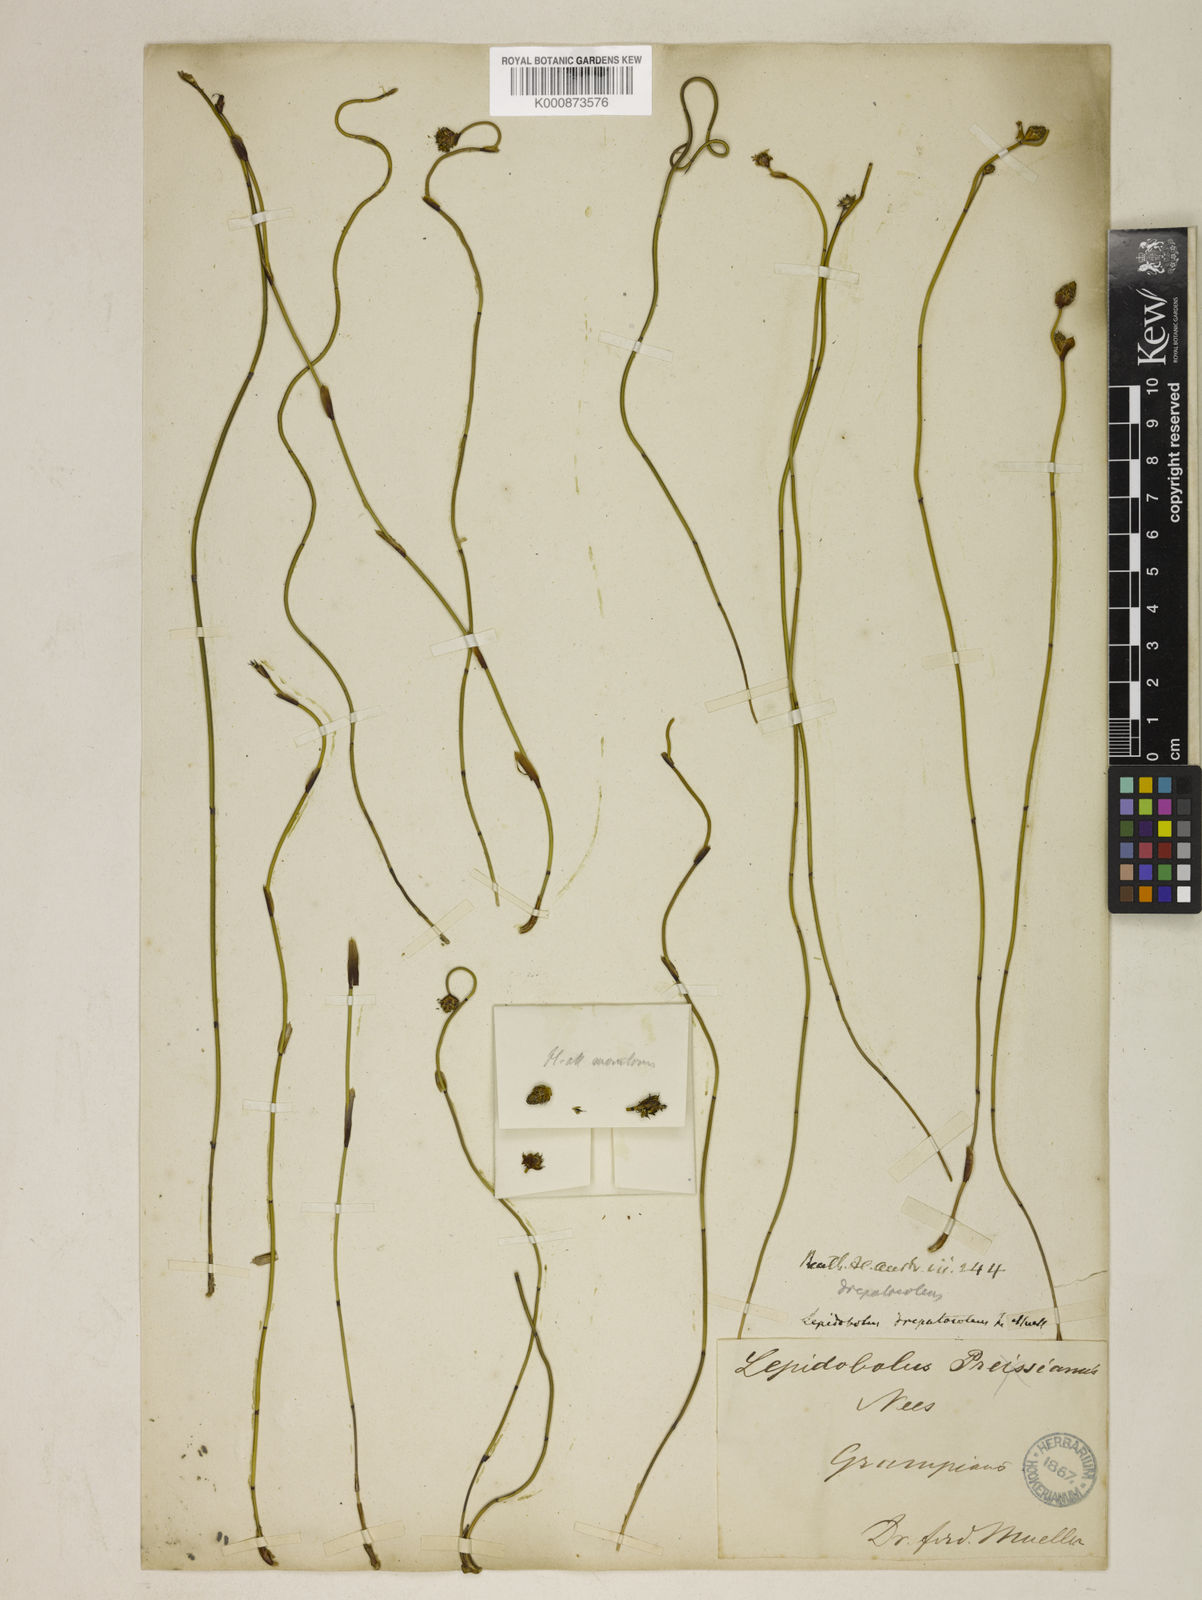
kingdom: Plantae
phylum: Tracheophyta
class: Liliopsida
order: Poales
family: Restionaceae
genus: Lepidobolus
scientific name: Lepidobolus drapetocoleus
